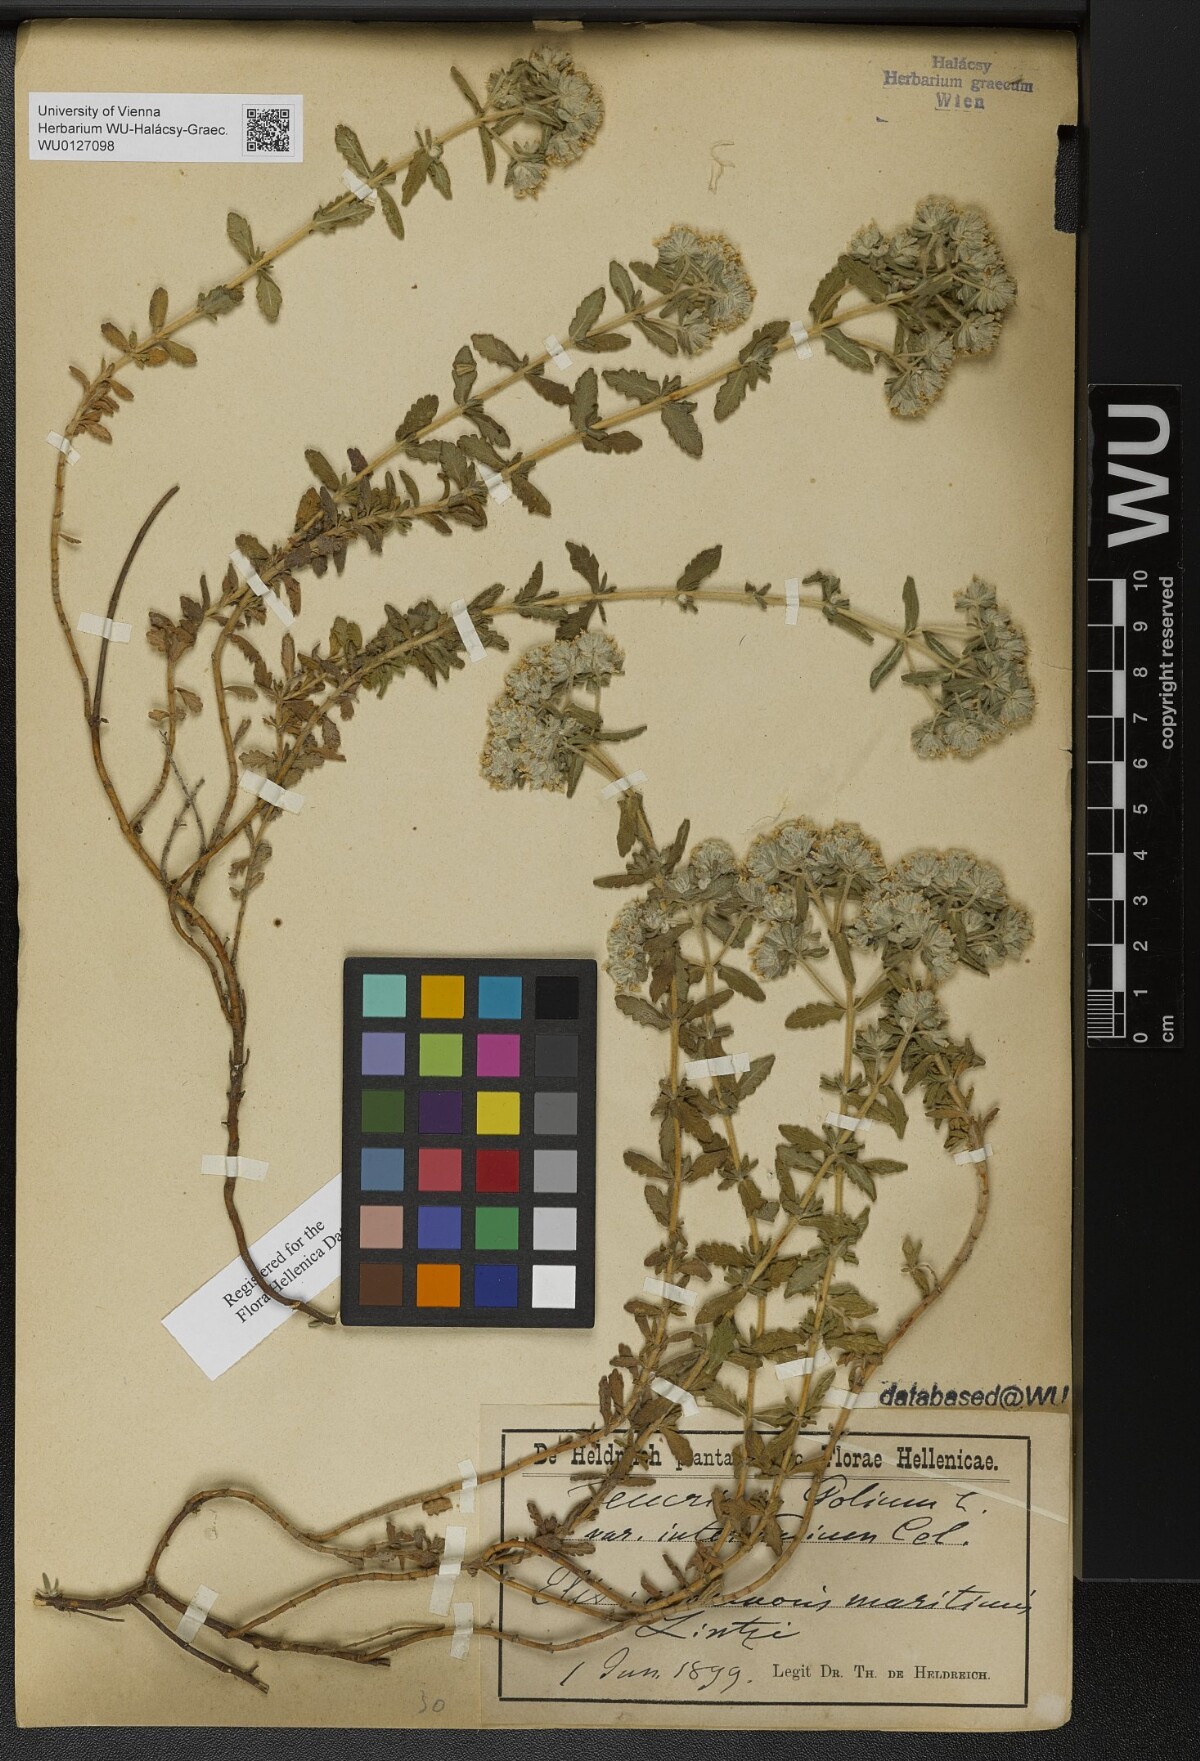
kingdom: Plantae
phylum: Tracheophyta
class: Magnoliopsida
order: Lamiales
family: Lamiaceae
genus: Teucrium
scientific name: Teucrium polium
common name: Poley
